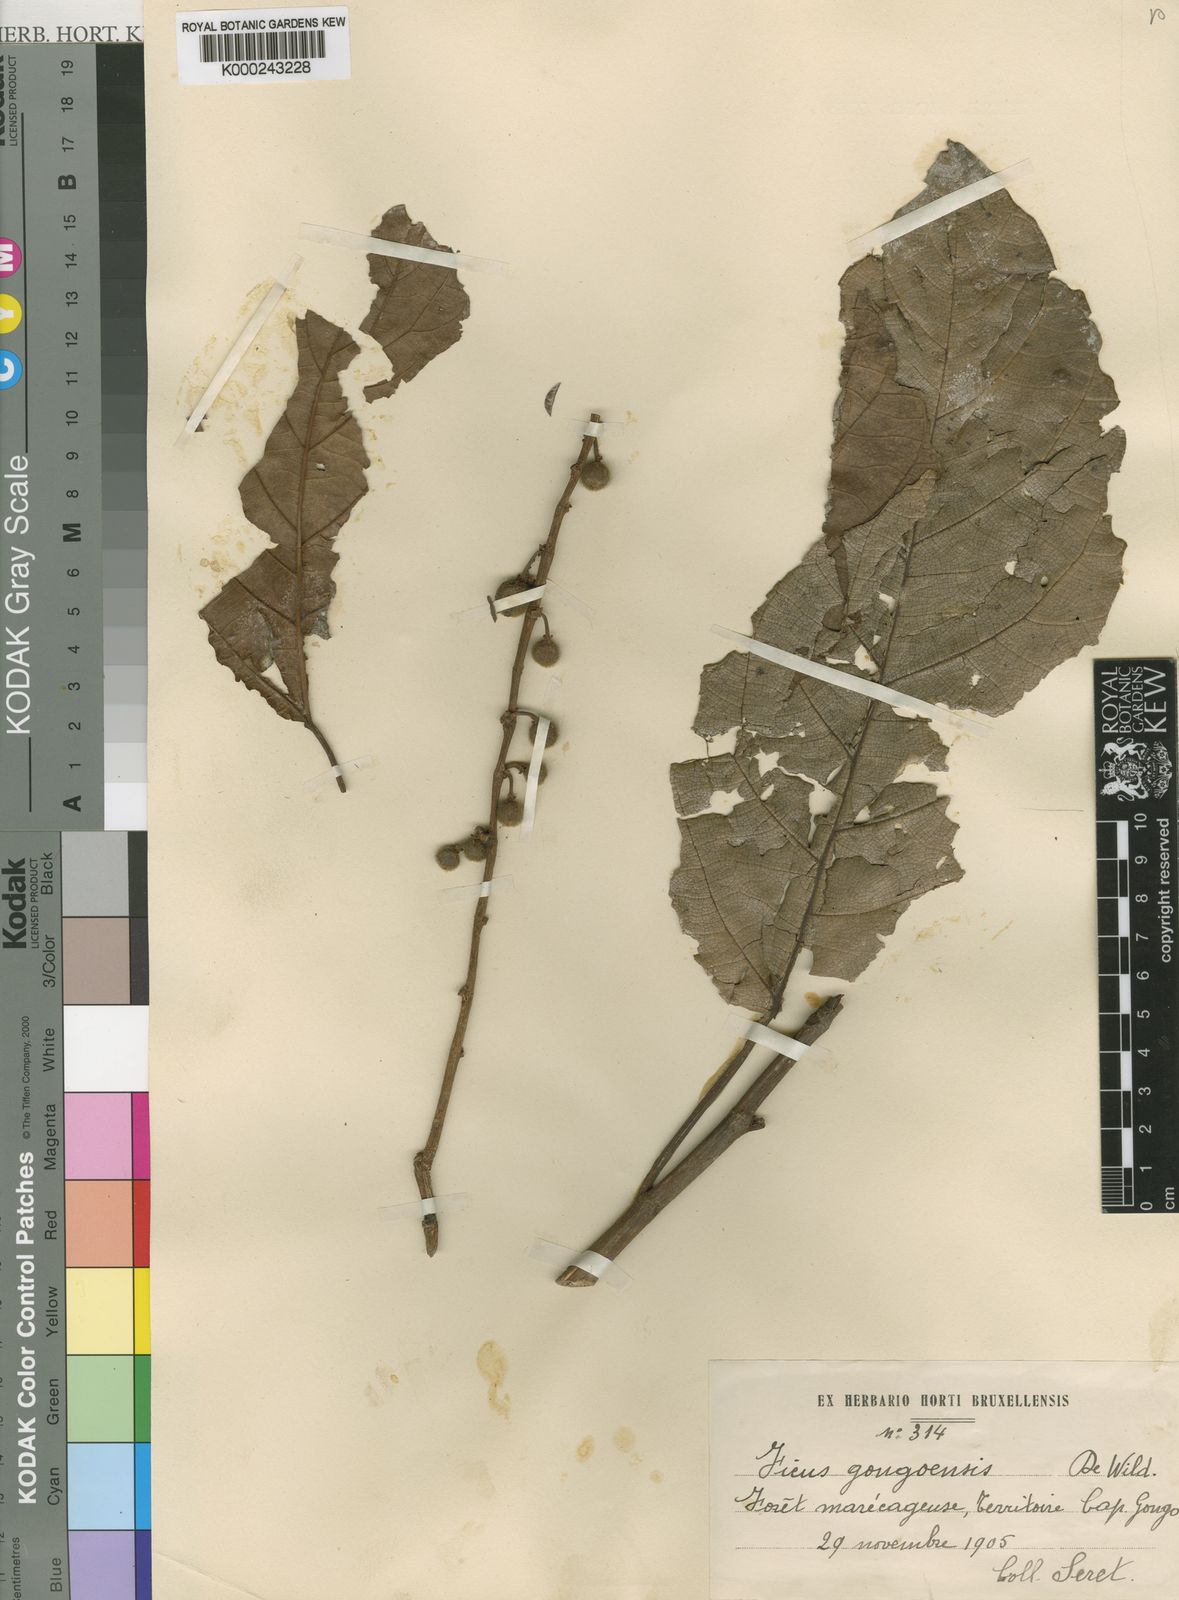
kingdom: Plantae
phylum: Tracheophyta
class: Magnoliopsida
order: Rosales
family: Moraceae
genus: Ficus
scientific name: Ficus sur
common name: Cape fig
